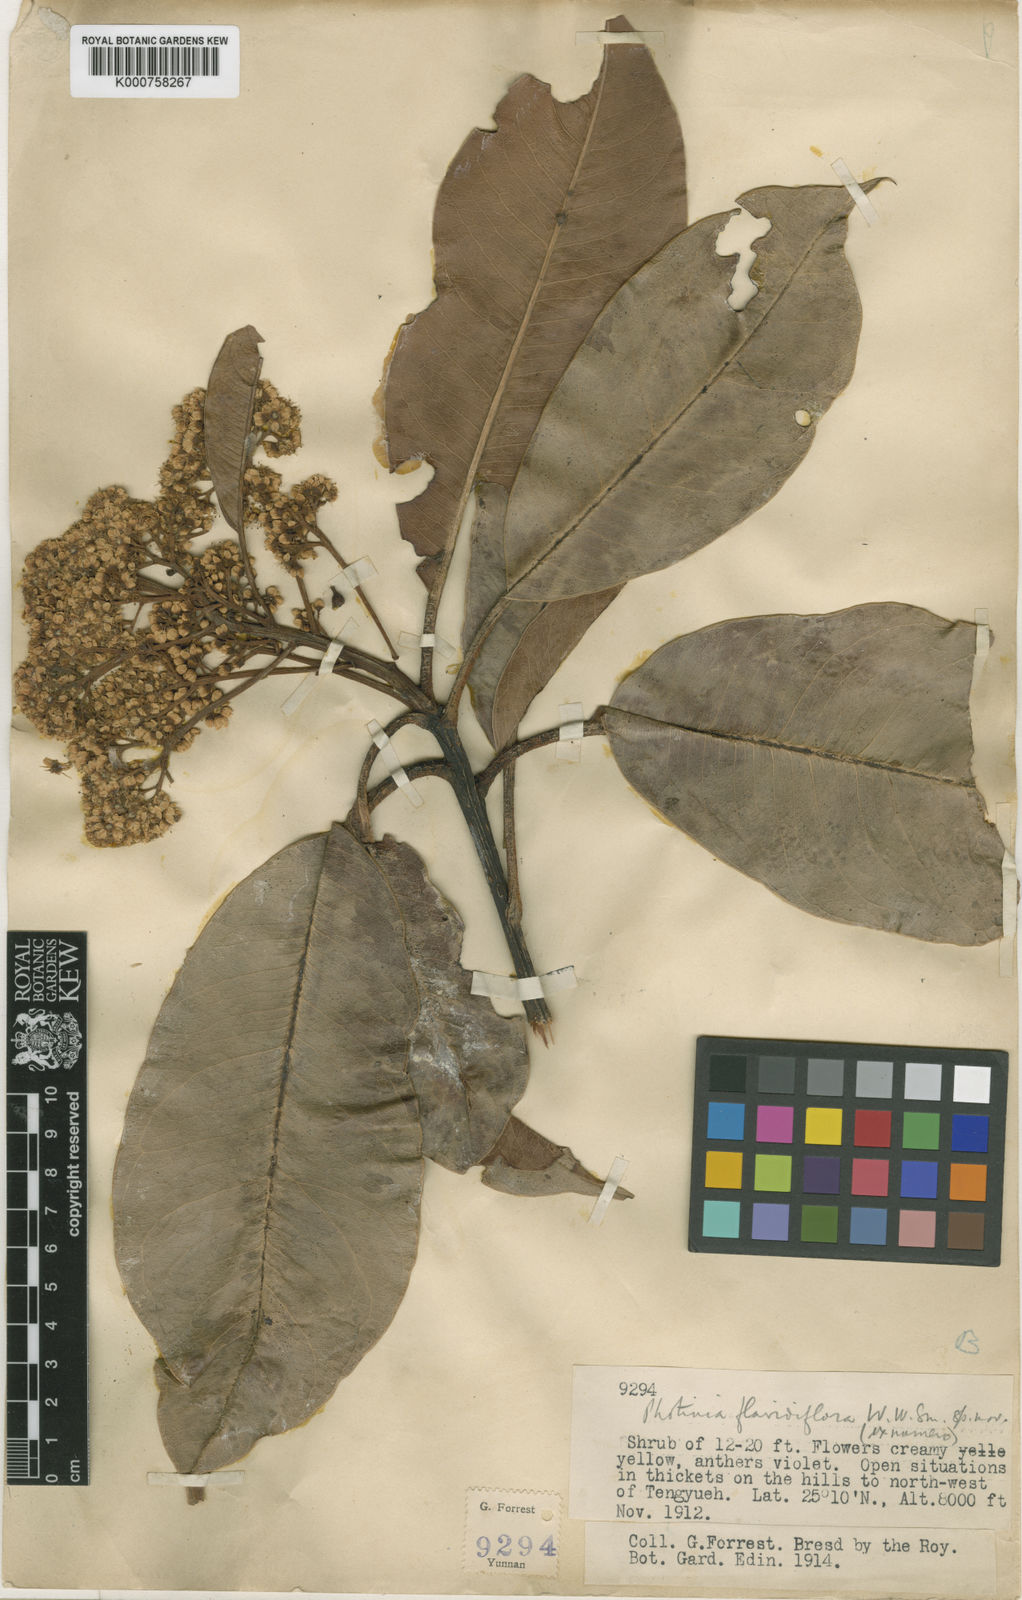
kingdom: Plantae
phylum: Tracheophyta
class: Magnoliopsida
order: Rosales
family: Rosaceae
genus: Photinia
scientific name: Photinia integrifolia
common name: Himalayan chokeberry
